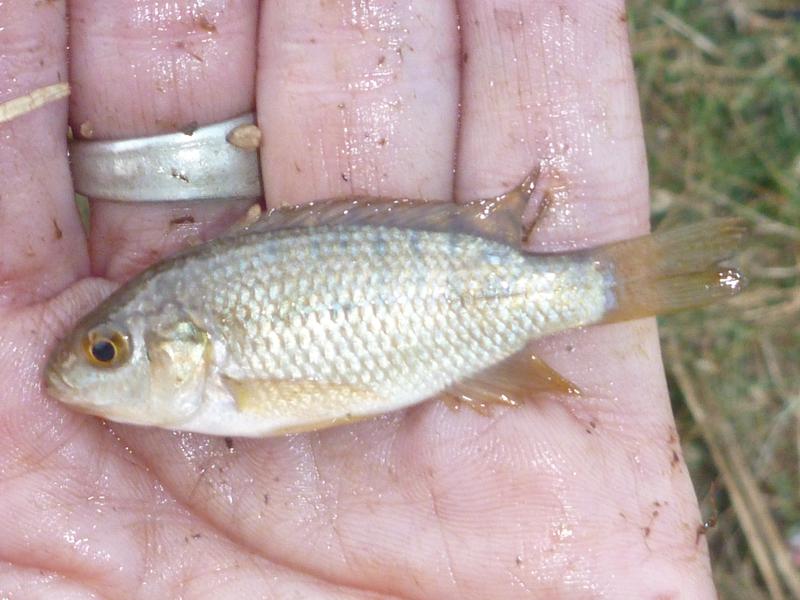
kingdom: Animalia
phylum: Chordata
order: Perciformes
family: Cichlidae
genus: Oreochromis
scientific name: Oreochromis leucostictus
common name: Blue spotted tilapia
